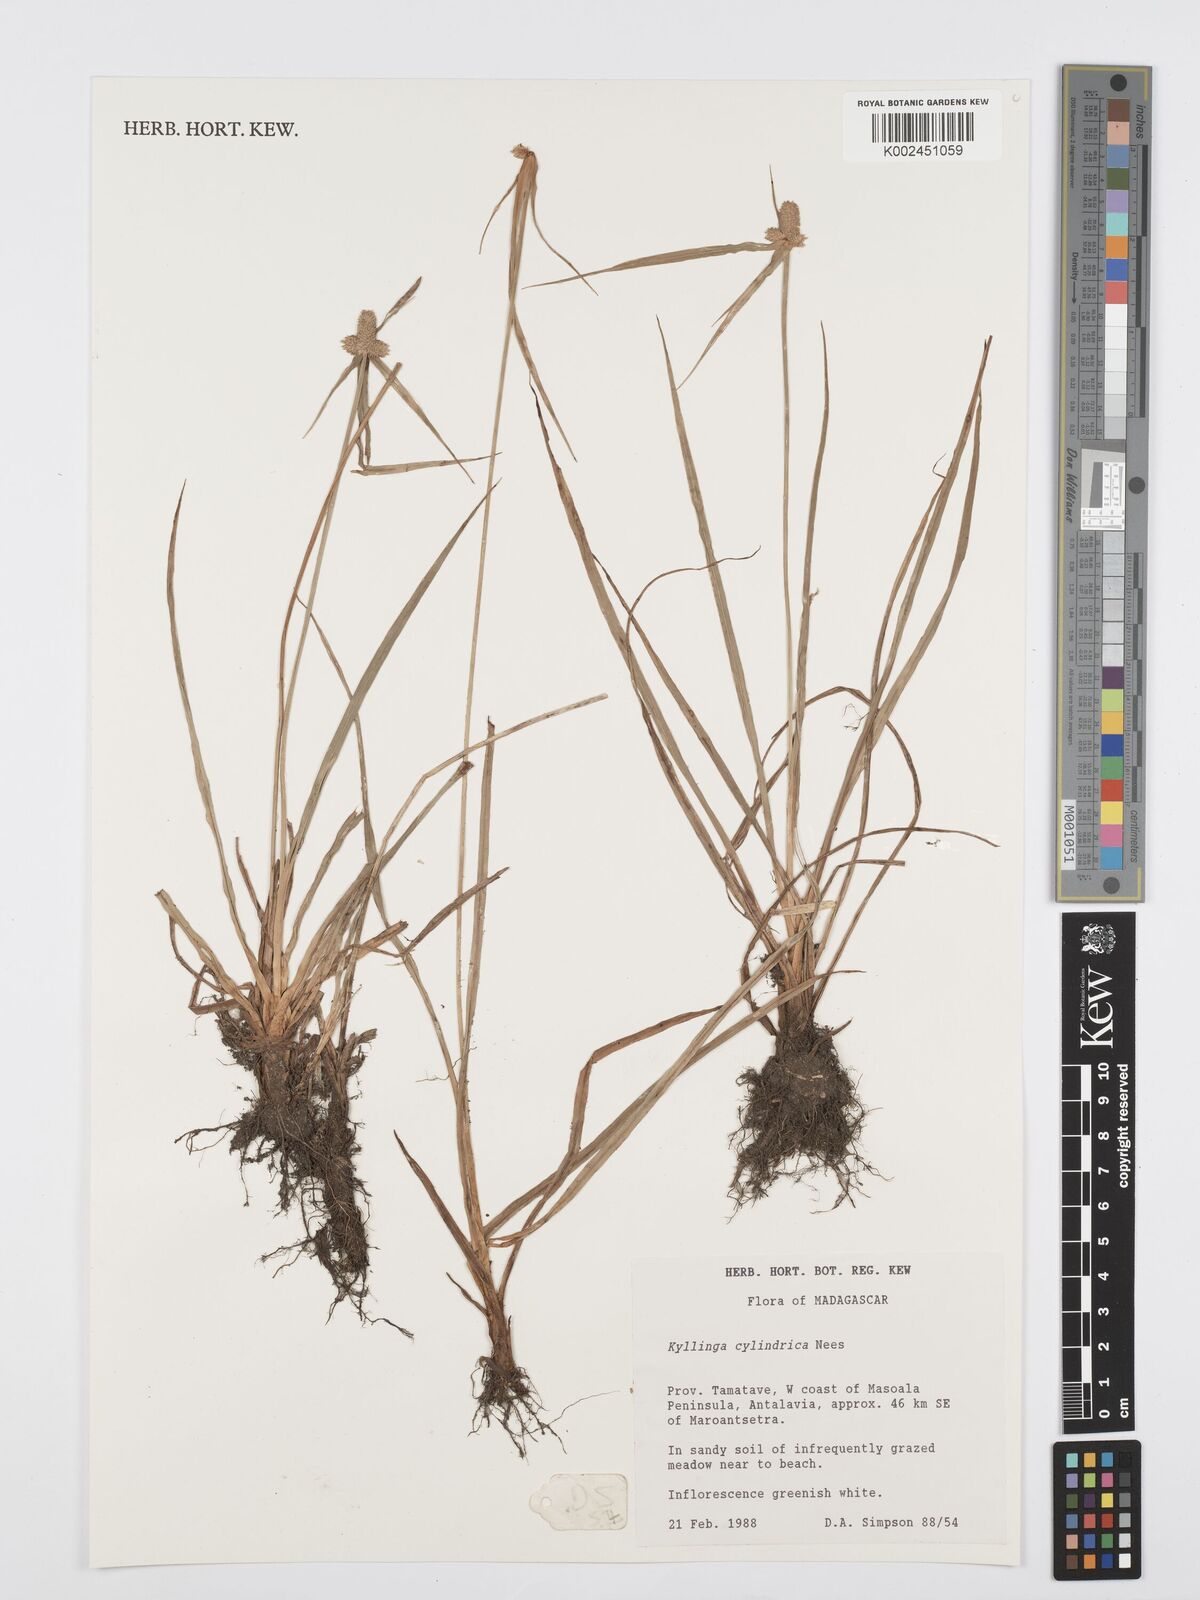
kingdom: Plantae
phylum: Tracheophyta
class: Liliopsida
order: Poales
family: Cyperaceae
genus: Cyperus
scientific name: Cyperus
